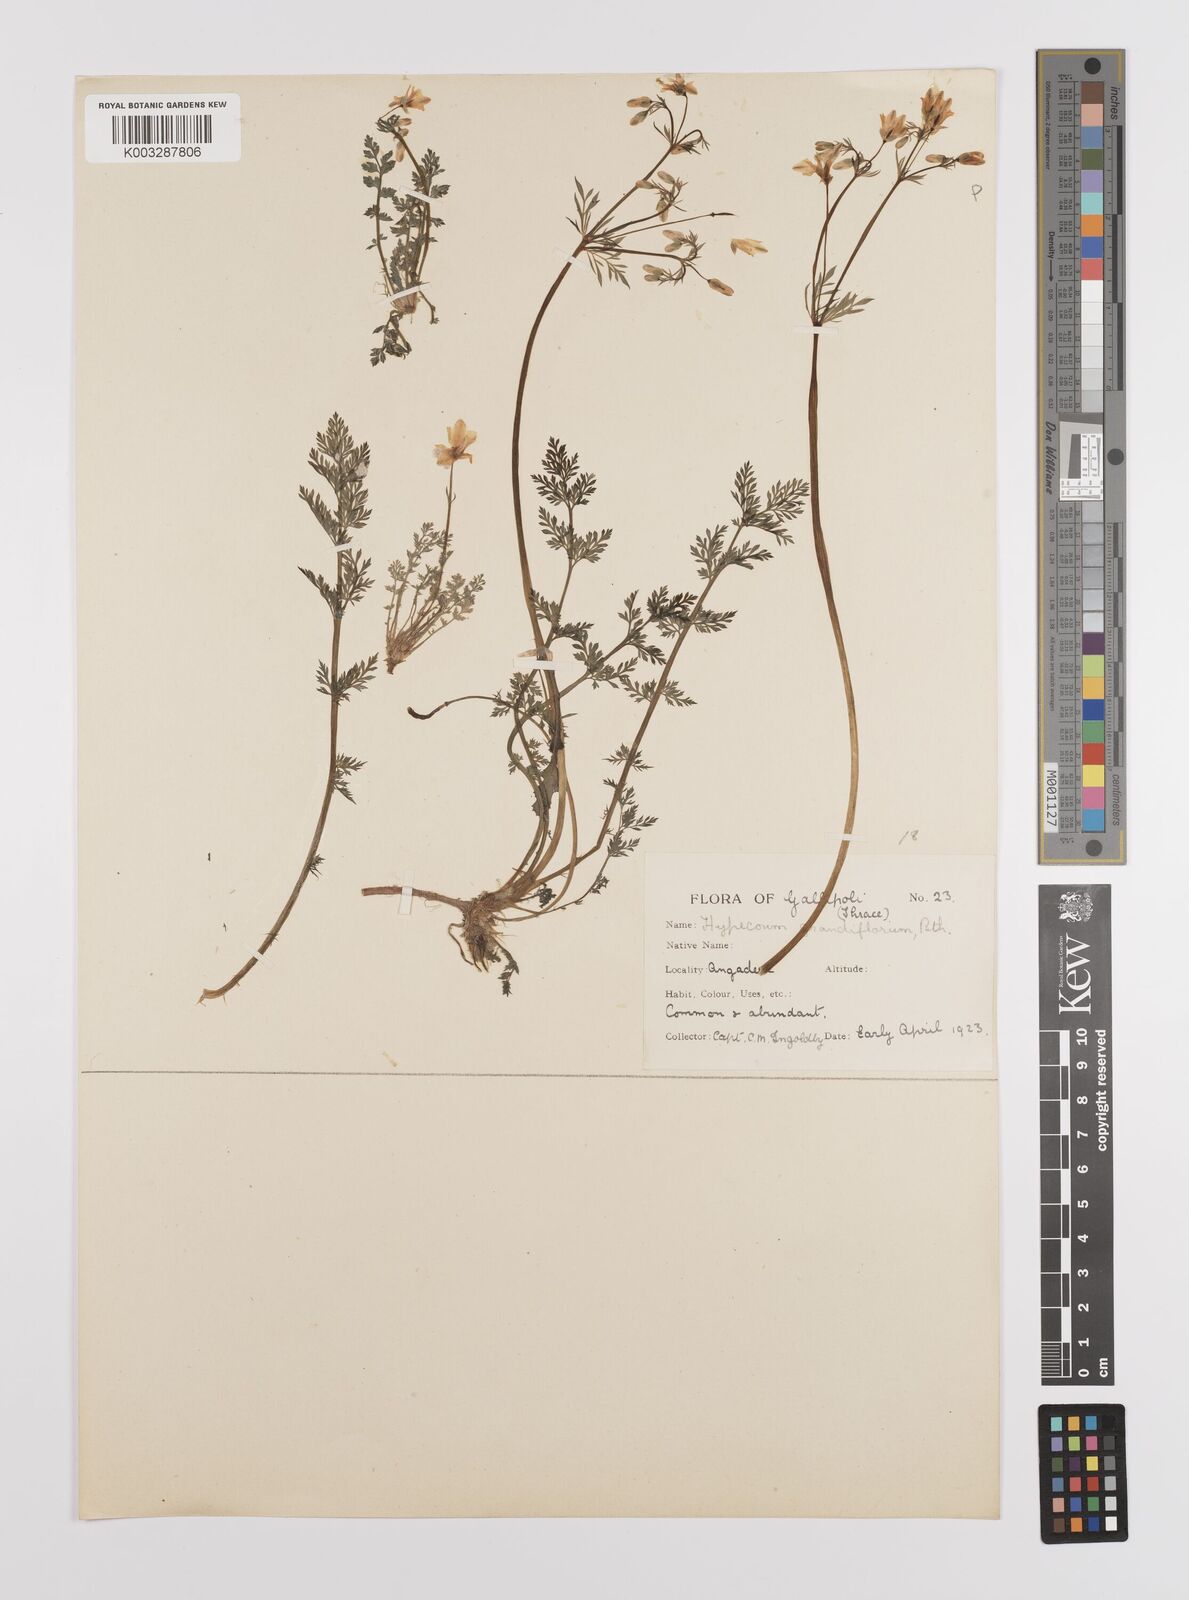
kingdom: Plantae
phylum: Tracheophyta
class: Magnoliopsida
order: Ranunculales
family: Papaveraceae
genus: Hypecoum
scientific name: Hypecoum imberbe
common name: Sicklefruit hypecoum
